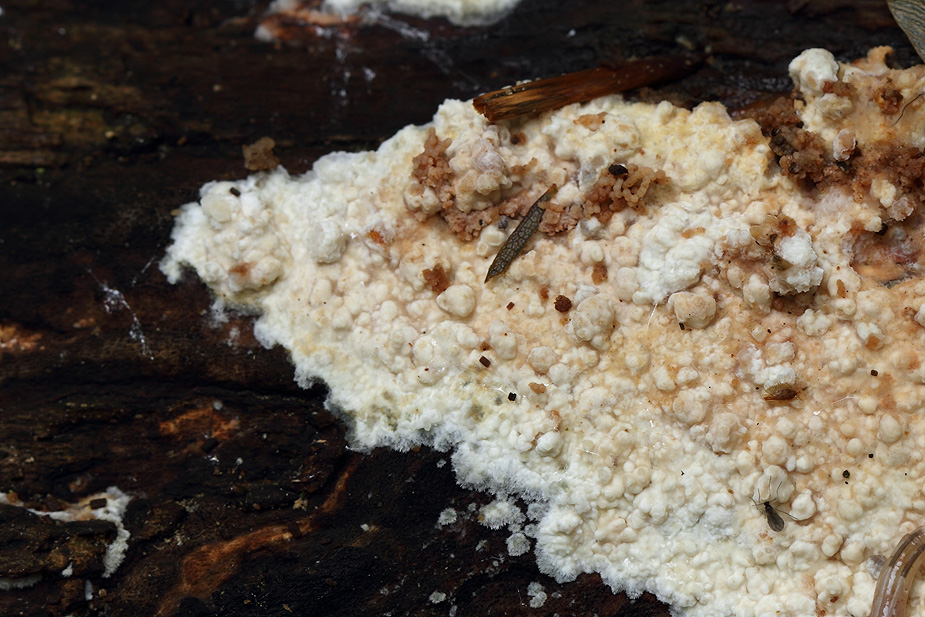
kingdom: Fungi
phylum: Ascomycota
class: Sordariomycetes
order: Xylariales
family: Hypoxylaceae
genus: Nodulisporium
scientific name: Nodulisporium cecidiogenes
